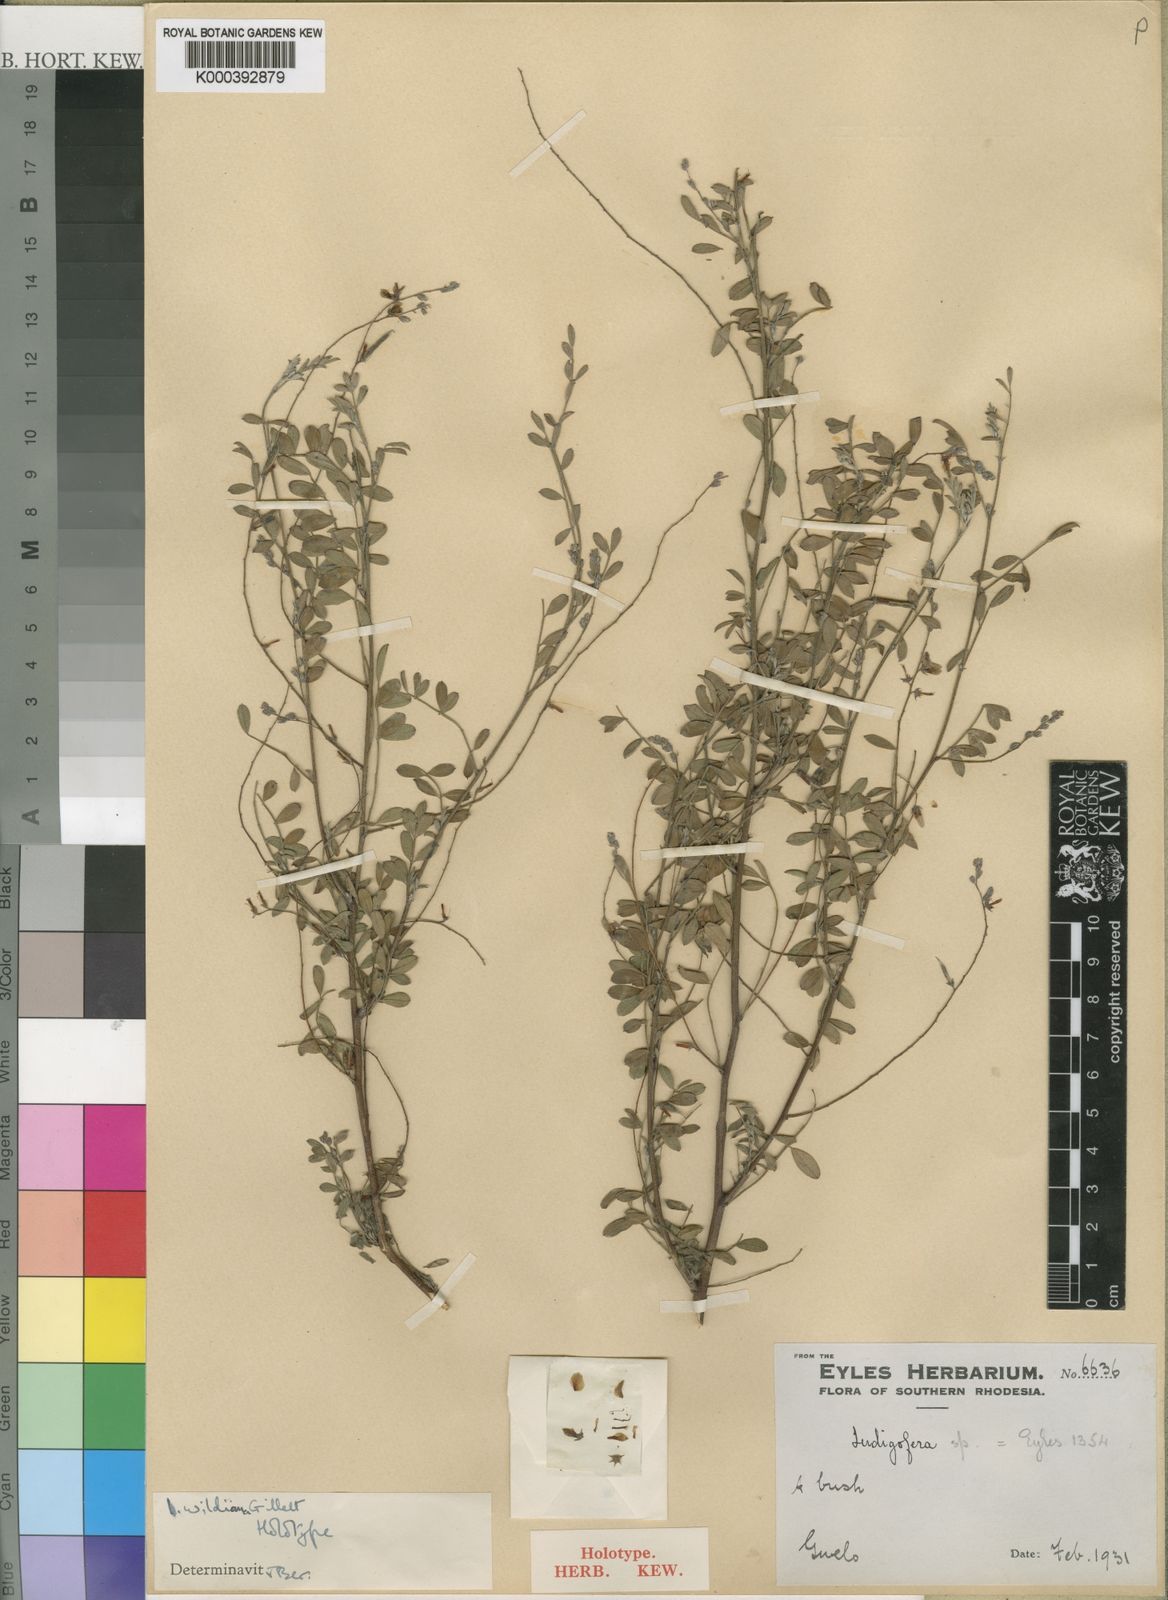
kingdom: Plantae
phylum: Tracheophyta
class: Magnoliopsida
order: Fabales
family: Fabaceae
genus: Indigofera
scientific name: Indigofera wildiana
